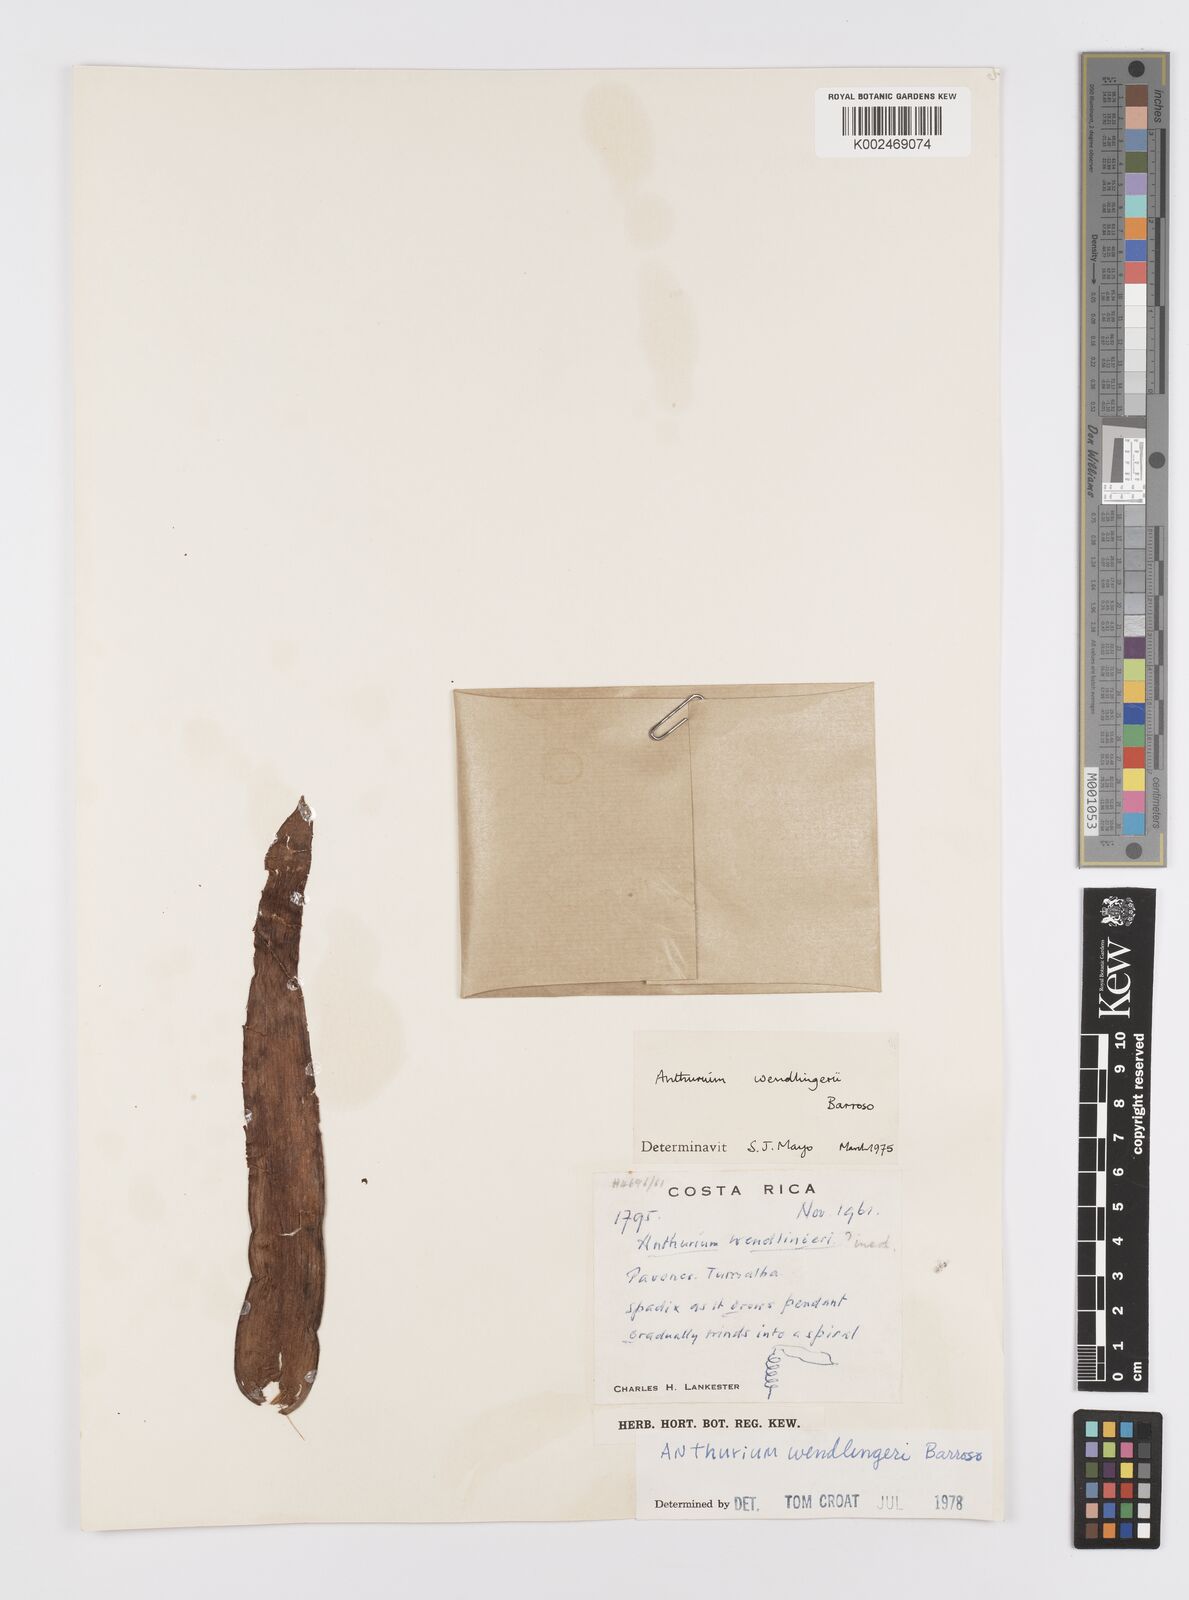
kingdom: Plantae
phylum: Tracheophyta
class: Liliopsida
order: Alismatales
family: Araceae
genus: Anthurium
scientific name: Anthurium wendlingeri
